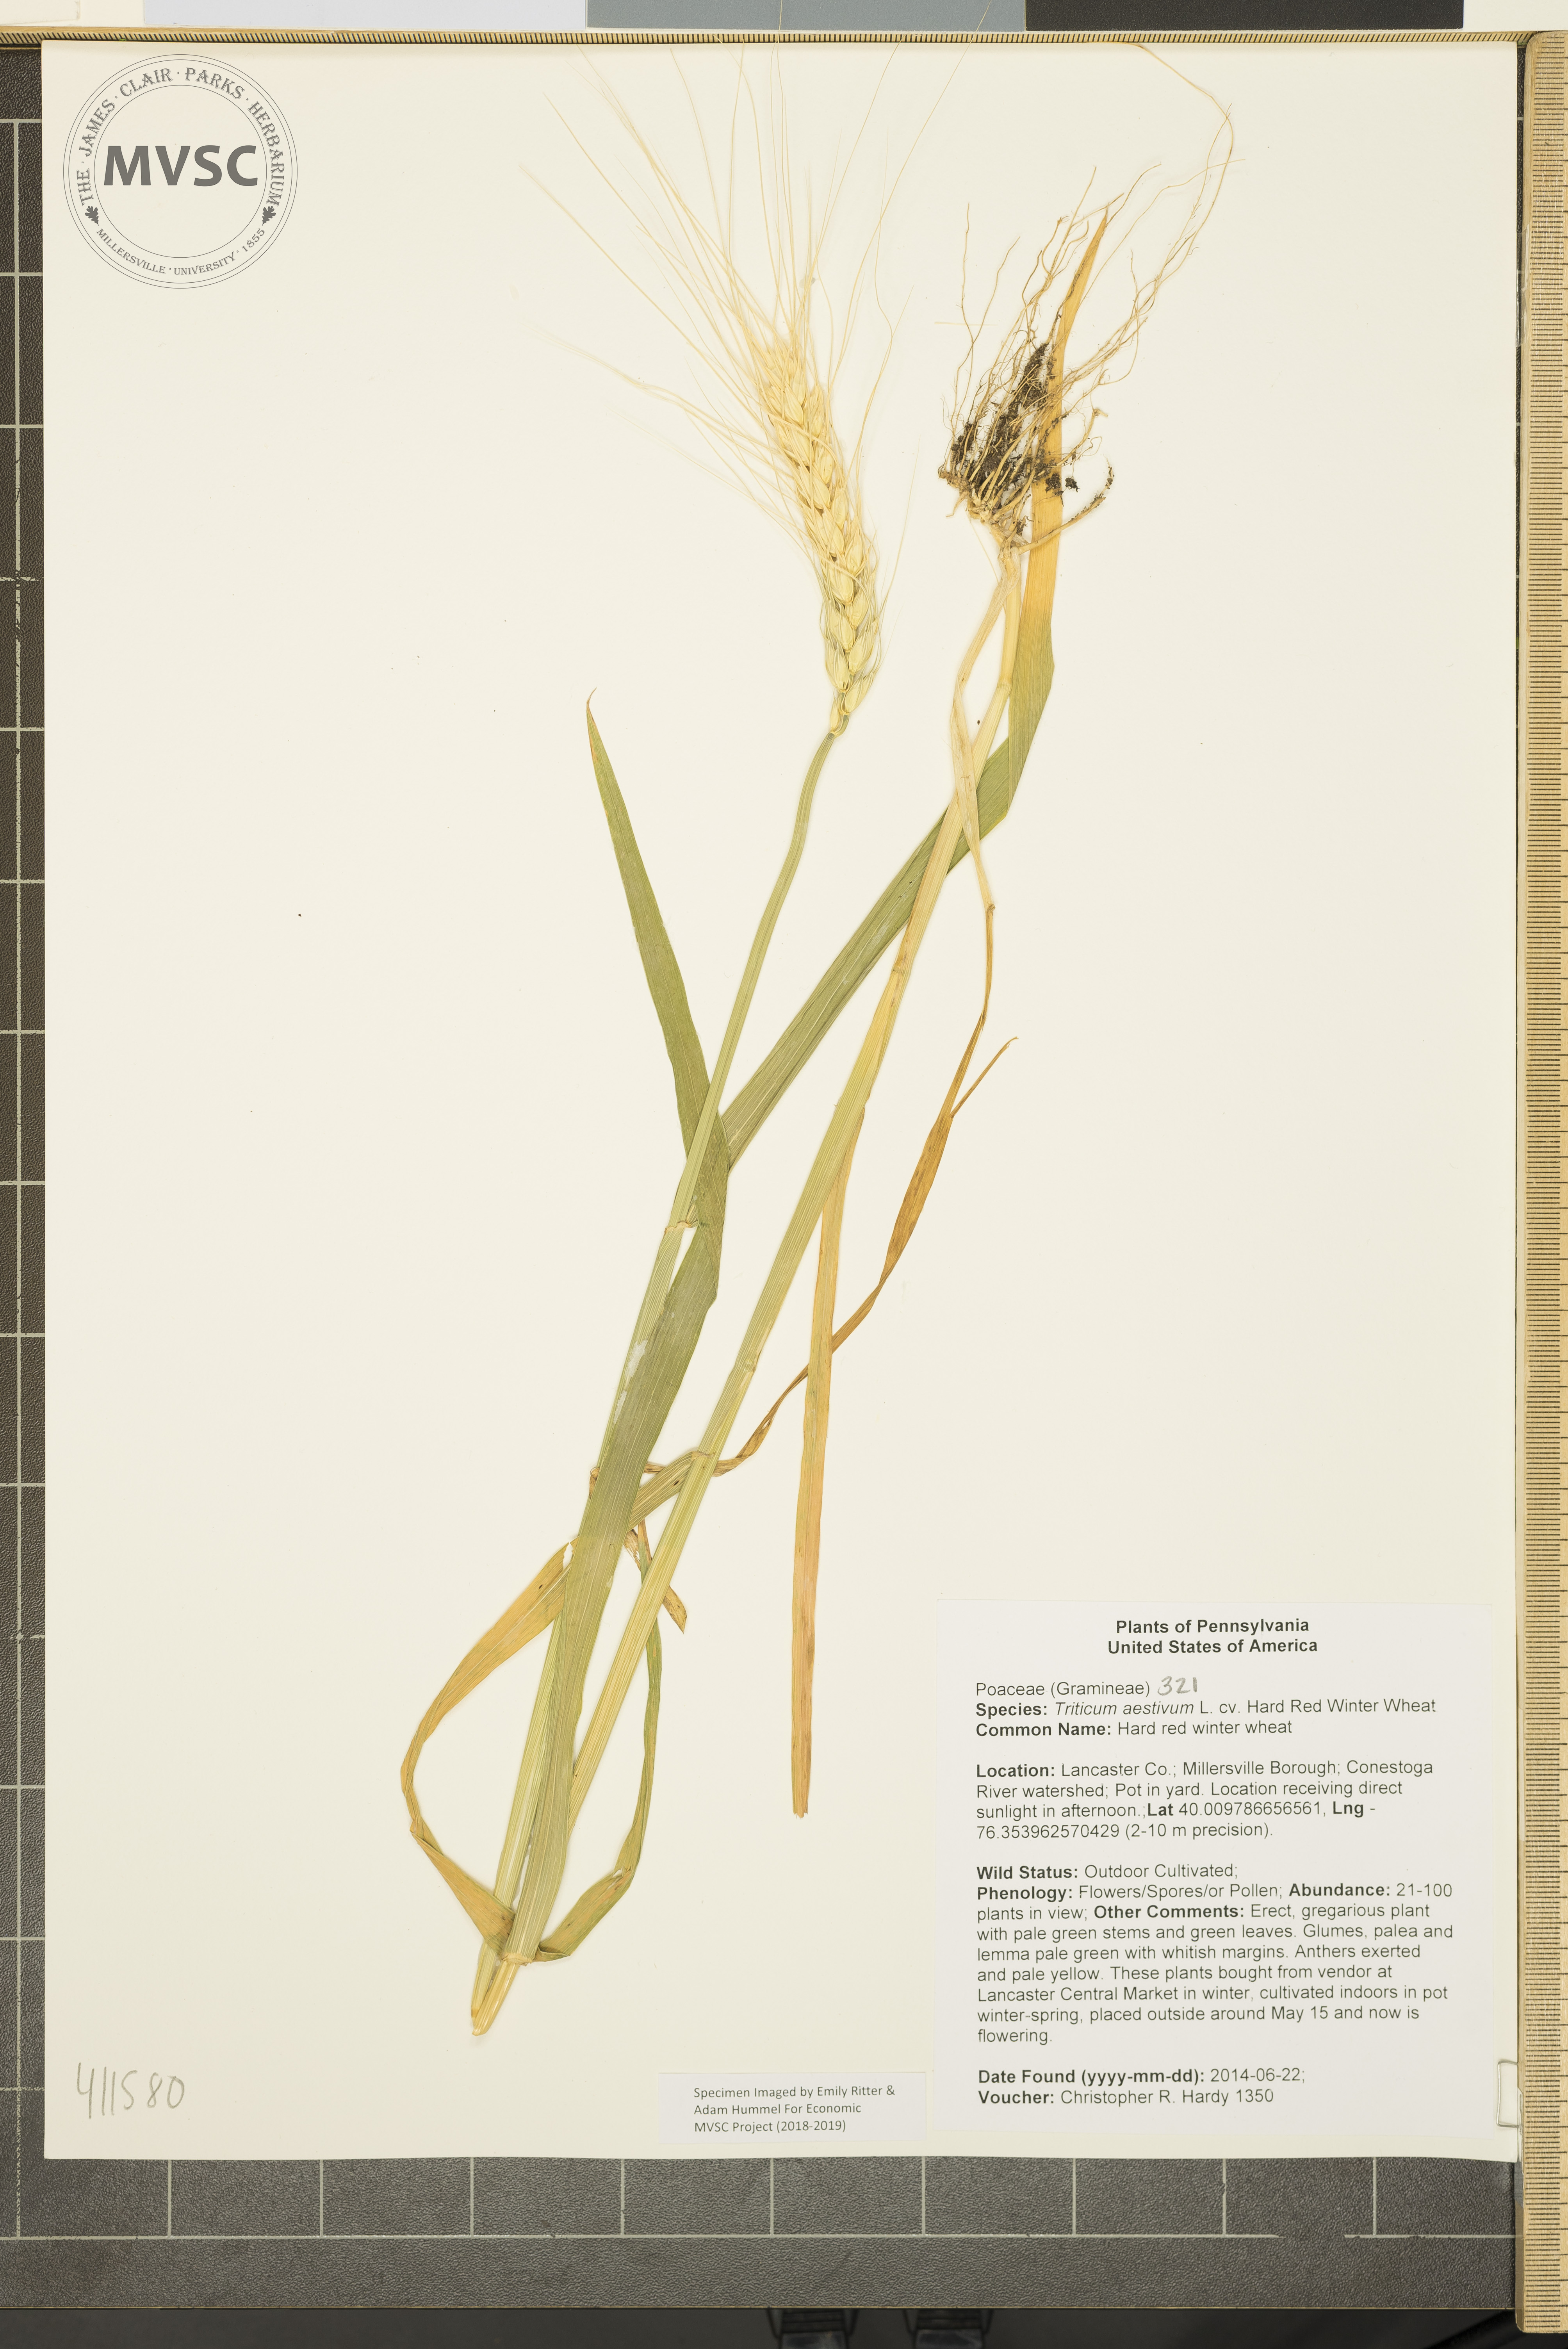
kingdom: Plantae
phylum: Tracheophyta
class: Liliopsida
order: Poales
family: Poaceae
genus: Triticum
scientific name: Triticum aestivum
